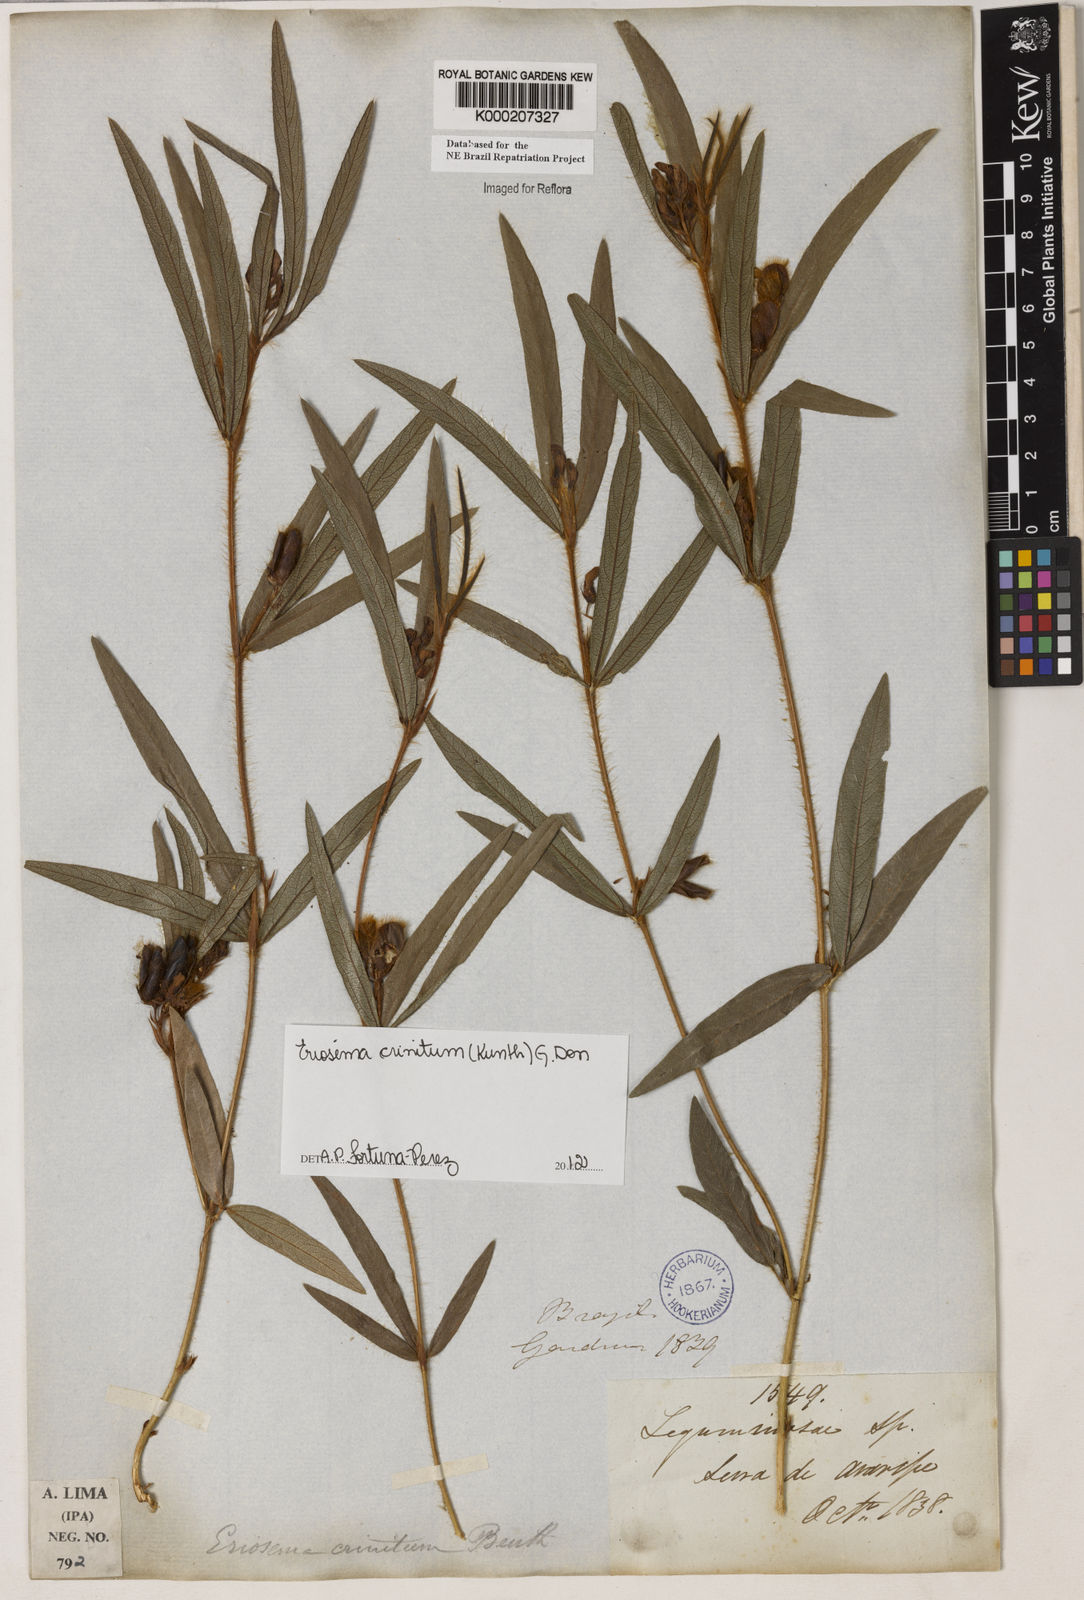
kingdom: Plantae
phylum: Tracheophyta
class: Magnoliopsida
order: Fabales
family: Fabaceae
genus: Eriosema
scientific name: Eriosema crinitum
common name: Sand pea
